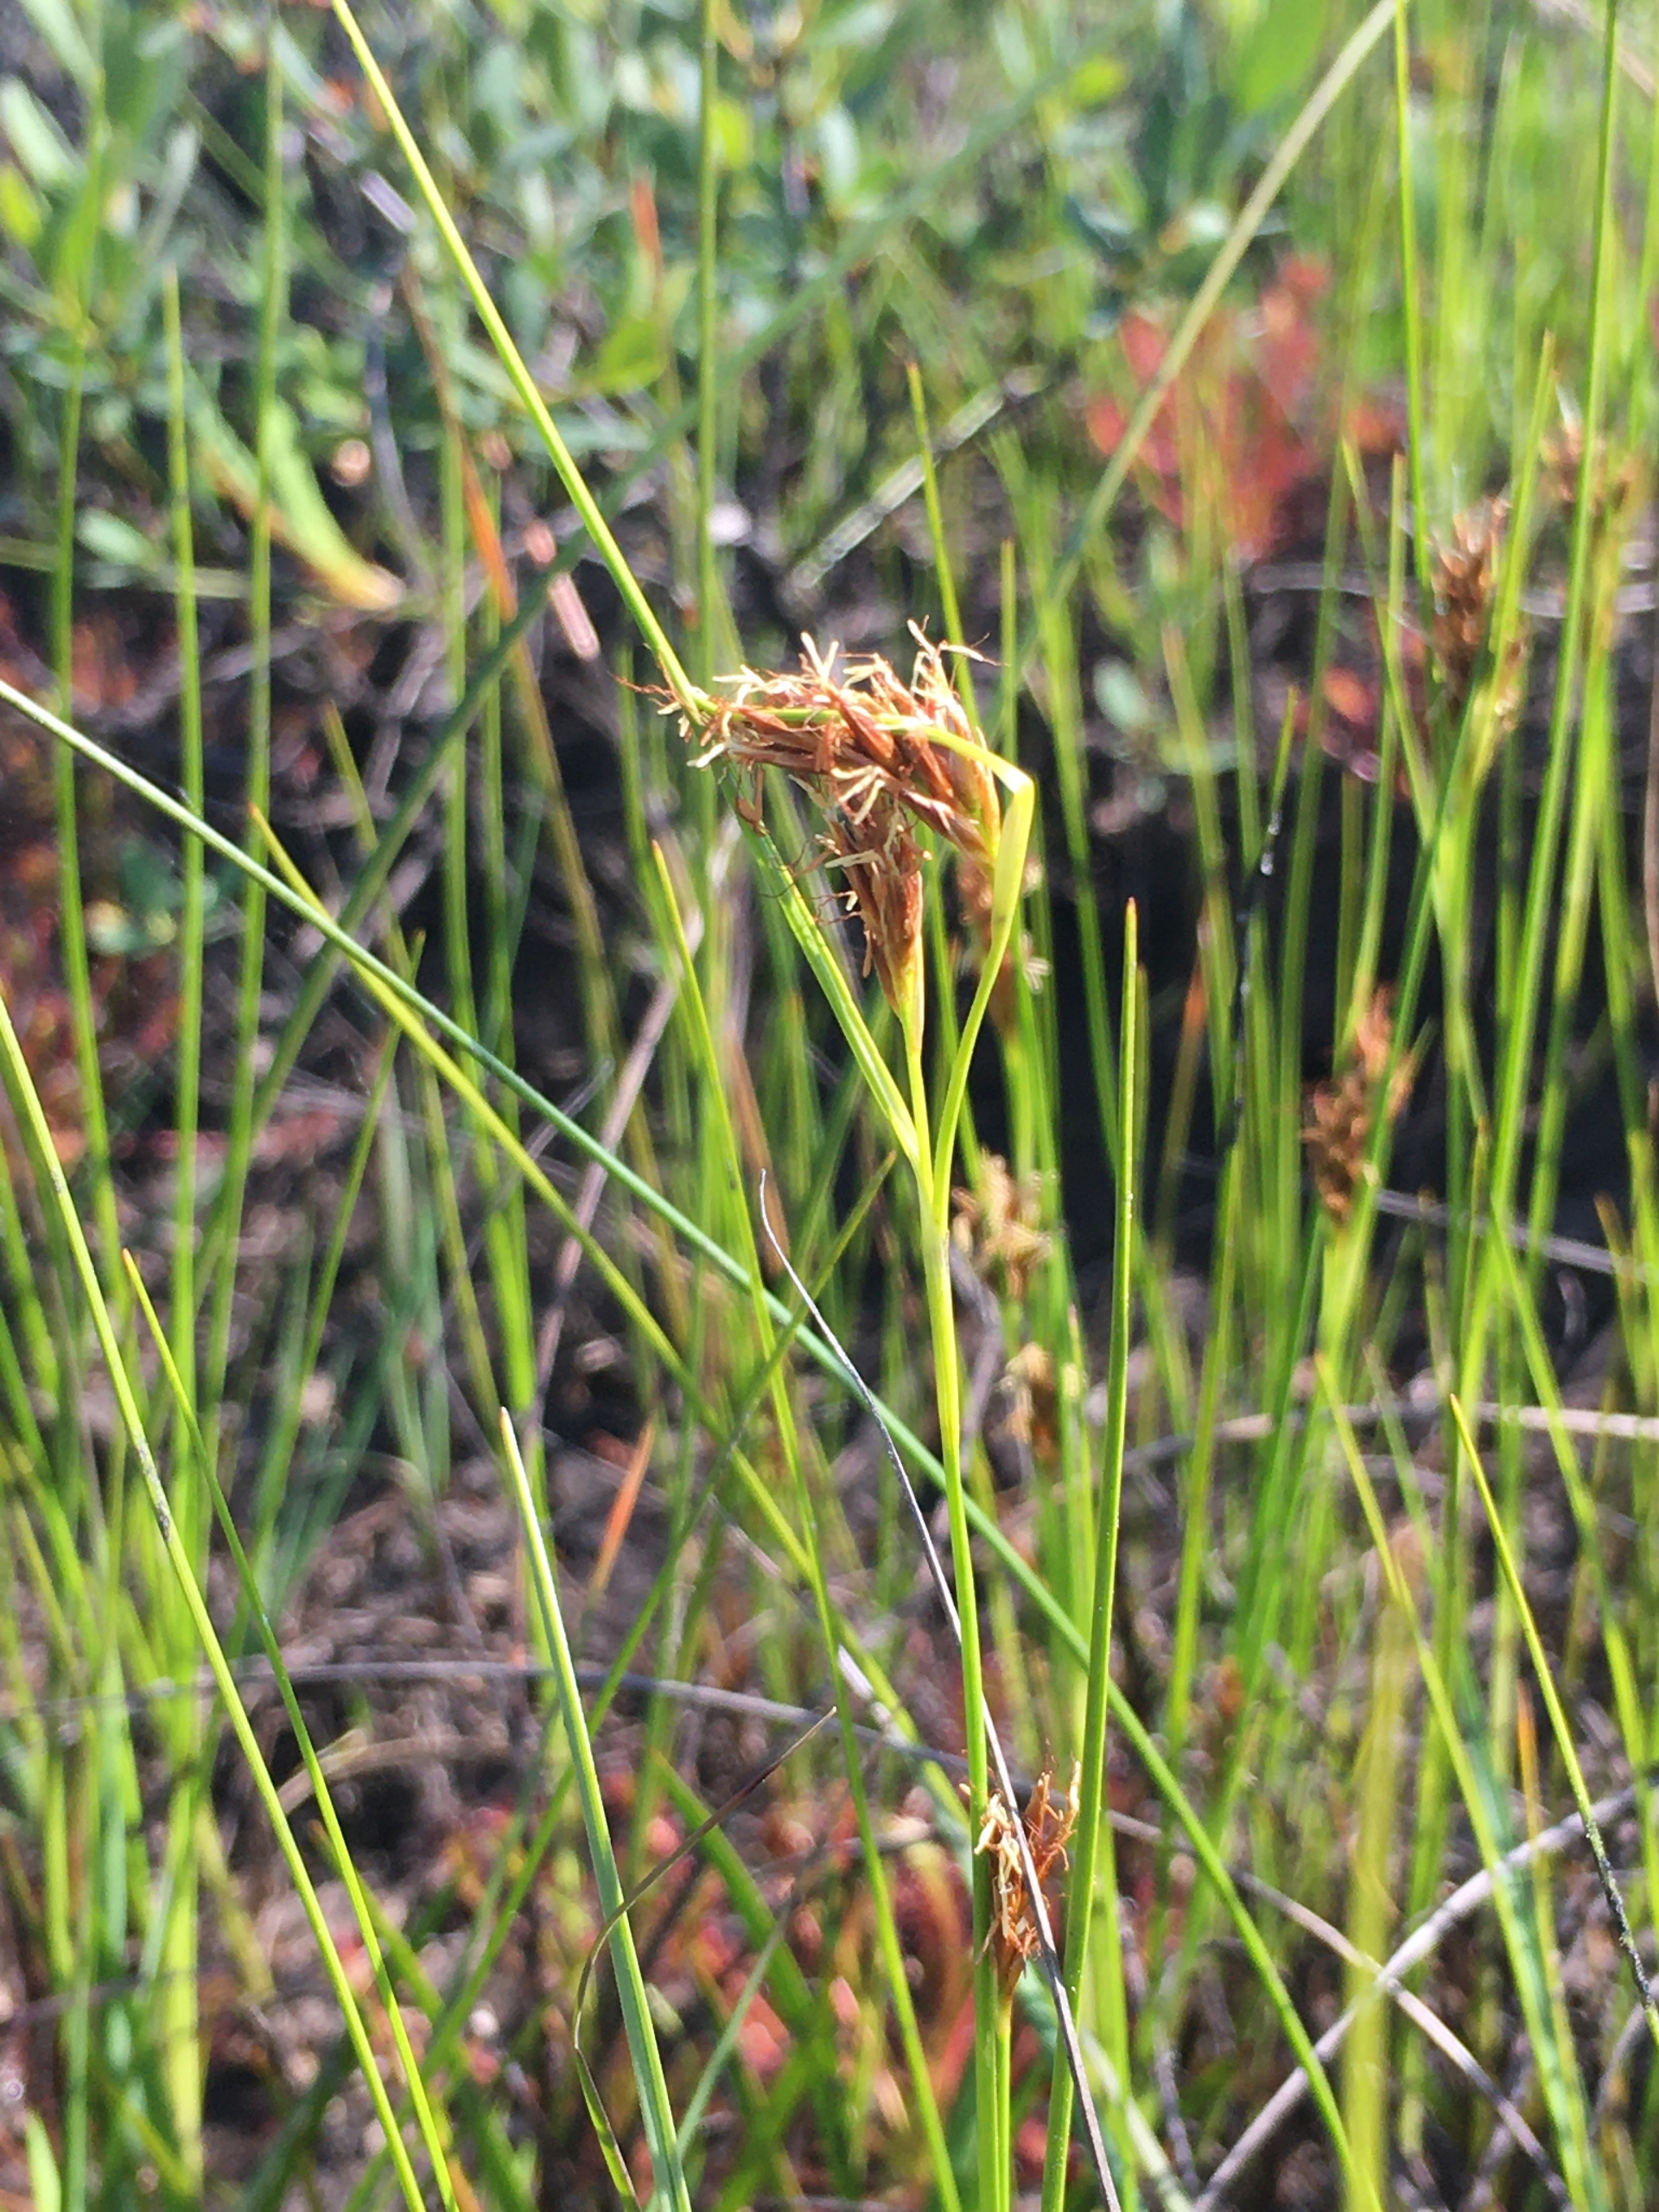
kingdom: Plantae
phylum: Tracheophyta
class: Liliopsida
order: Poales
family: Cyperaceae
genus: Rhynchospora
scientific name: Rhynchospora fusca
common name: Brun næbfrø
